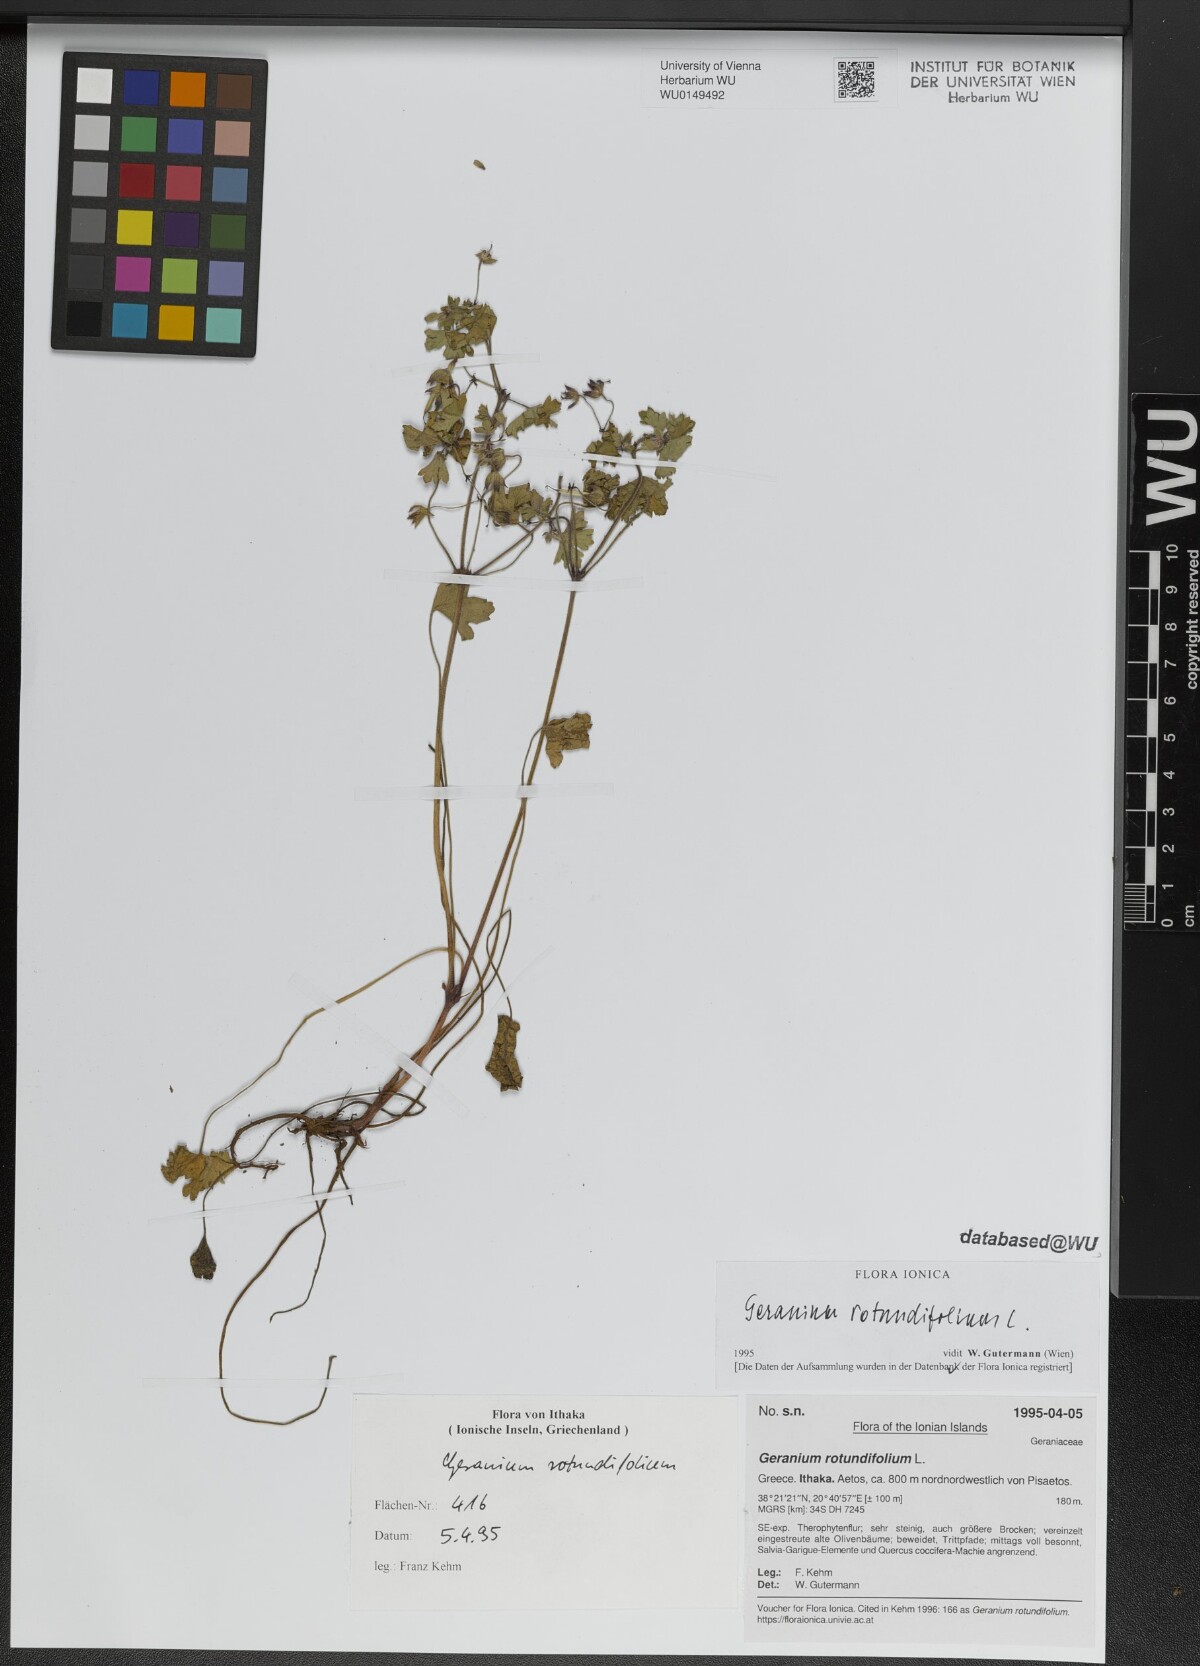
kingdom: Plantae
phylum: Tracheophyta
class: Magnoliopsida
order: Geraniales
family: Geraniaceae
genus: Geranium
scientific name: Geranium rotundifolium
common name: Round-leaved crane's-bill
